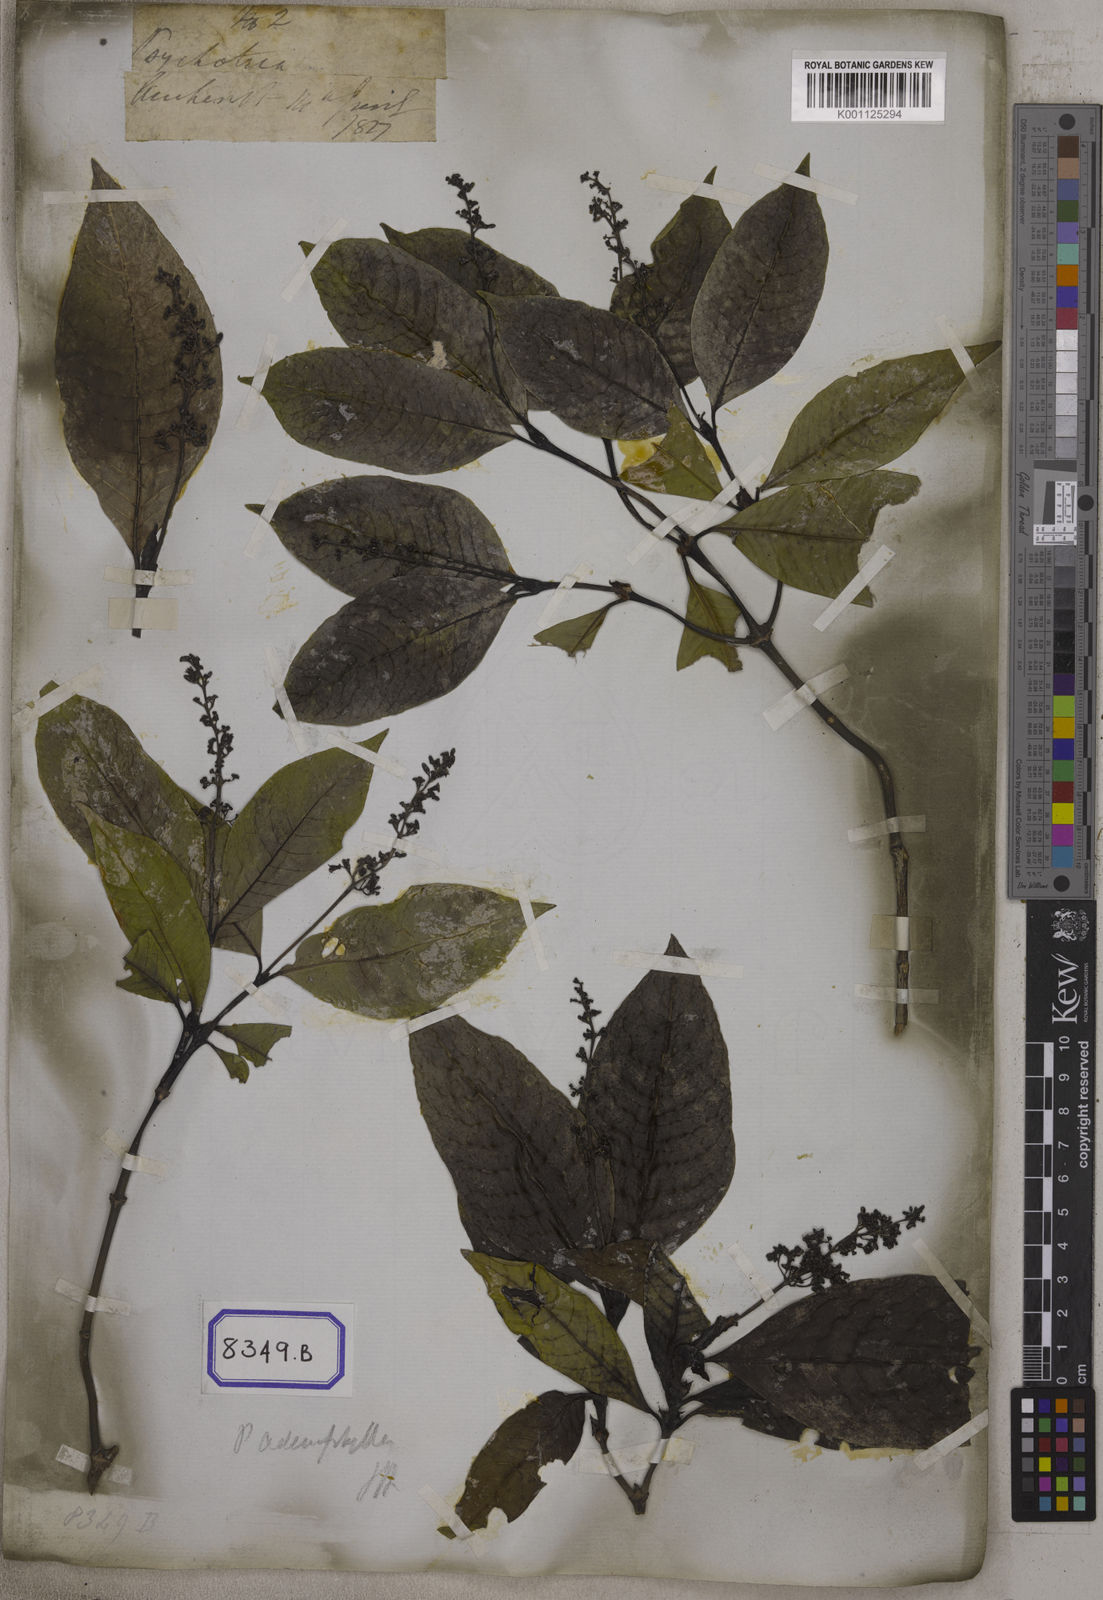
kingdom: Plantae
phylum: Tracheophyta
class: Magnoliopsida
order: Gentianales
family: Rubiaceae
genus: Psychotria
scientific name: Psychotria adenophylla
